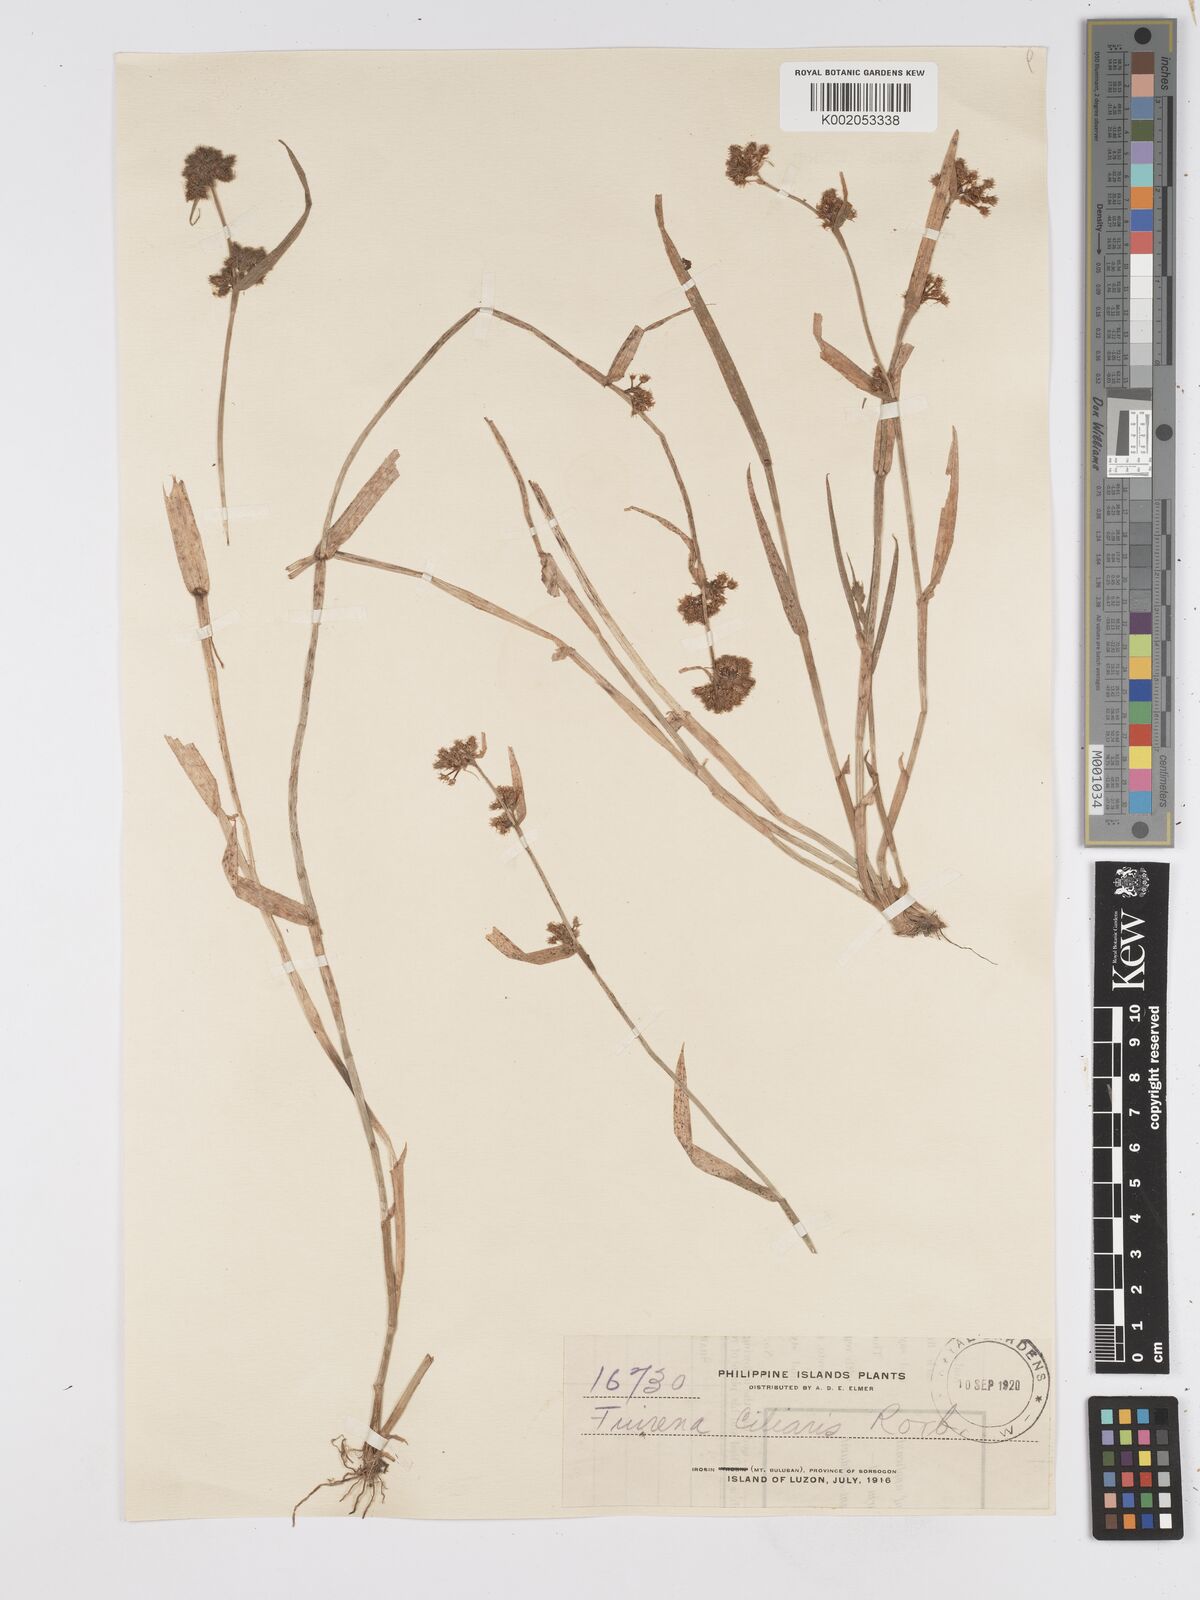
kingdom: Plantae
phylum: Tracheophyta
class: Liliopsida
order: Poales
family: Cyperaceae
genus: Fuirena
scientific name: Fuirena ciliaris
